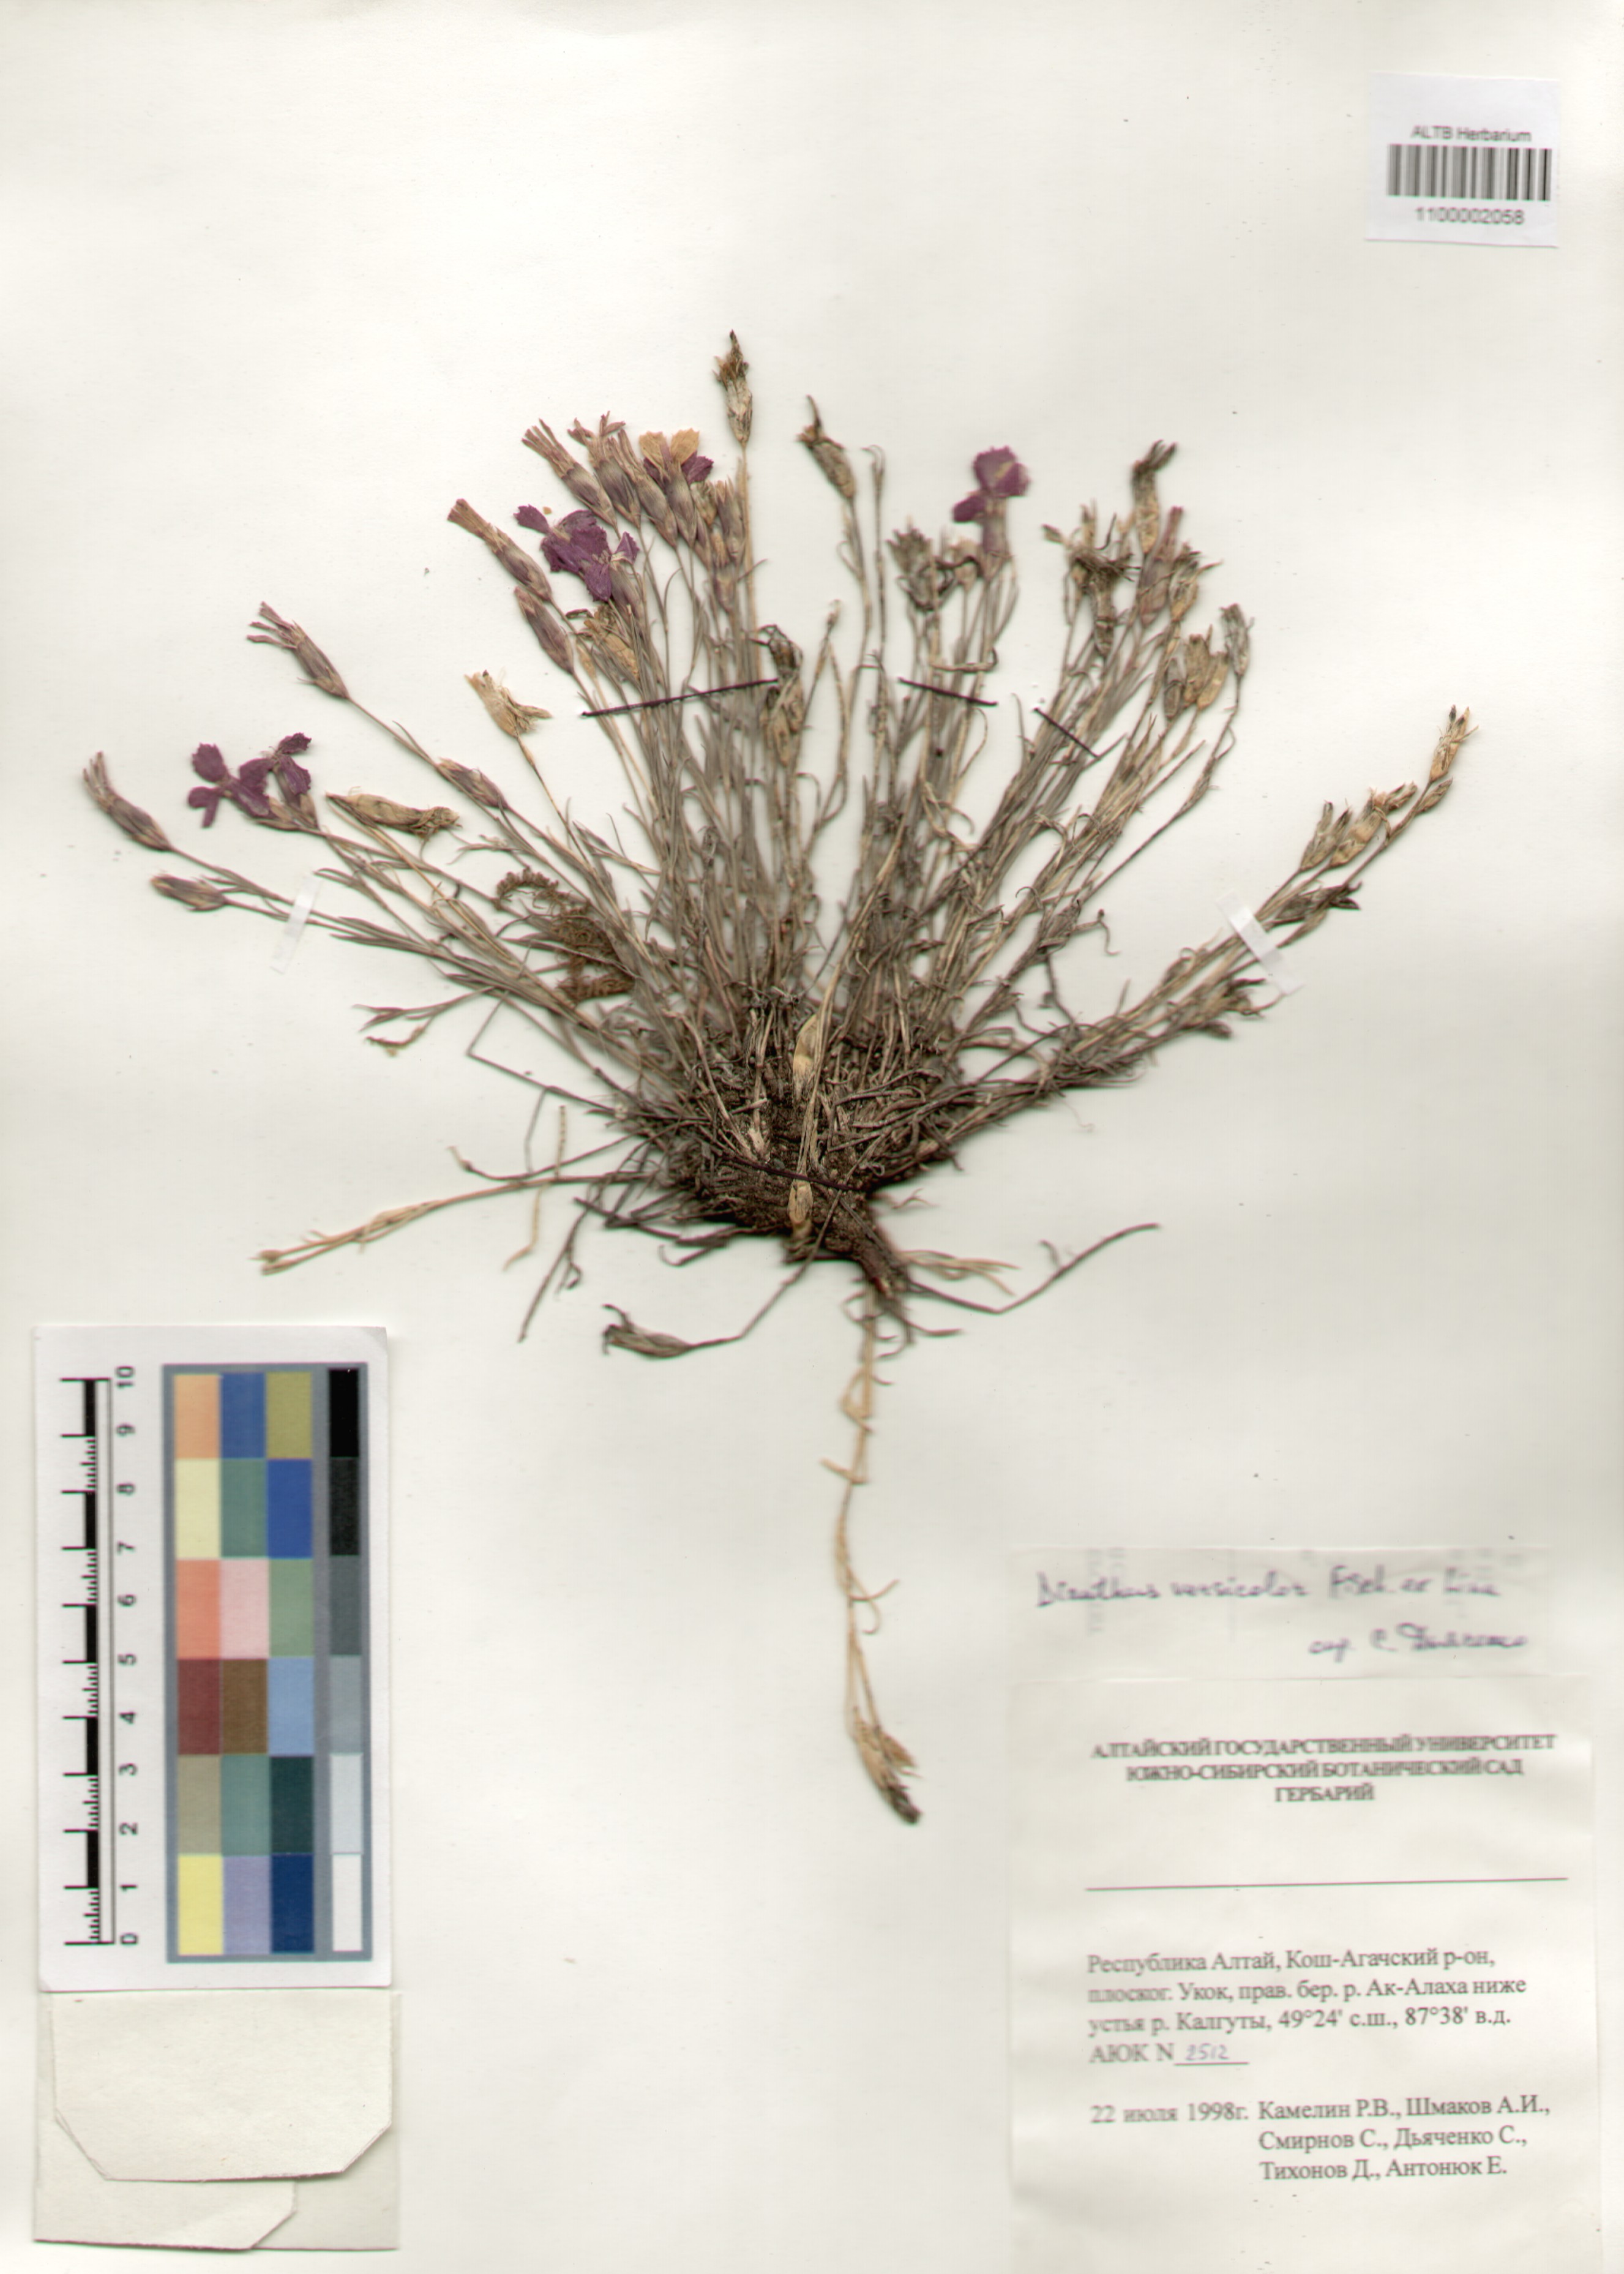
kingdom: Plantae
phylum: Tracheophyta
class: Magnoliopsida
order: Caryophyllales
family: Caryophyllaceae
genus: Dianthus
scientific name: Dianthus chinensis
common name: Rainbow pink
